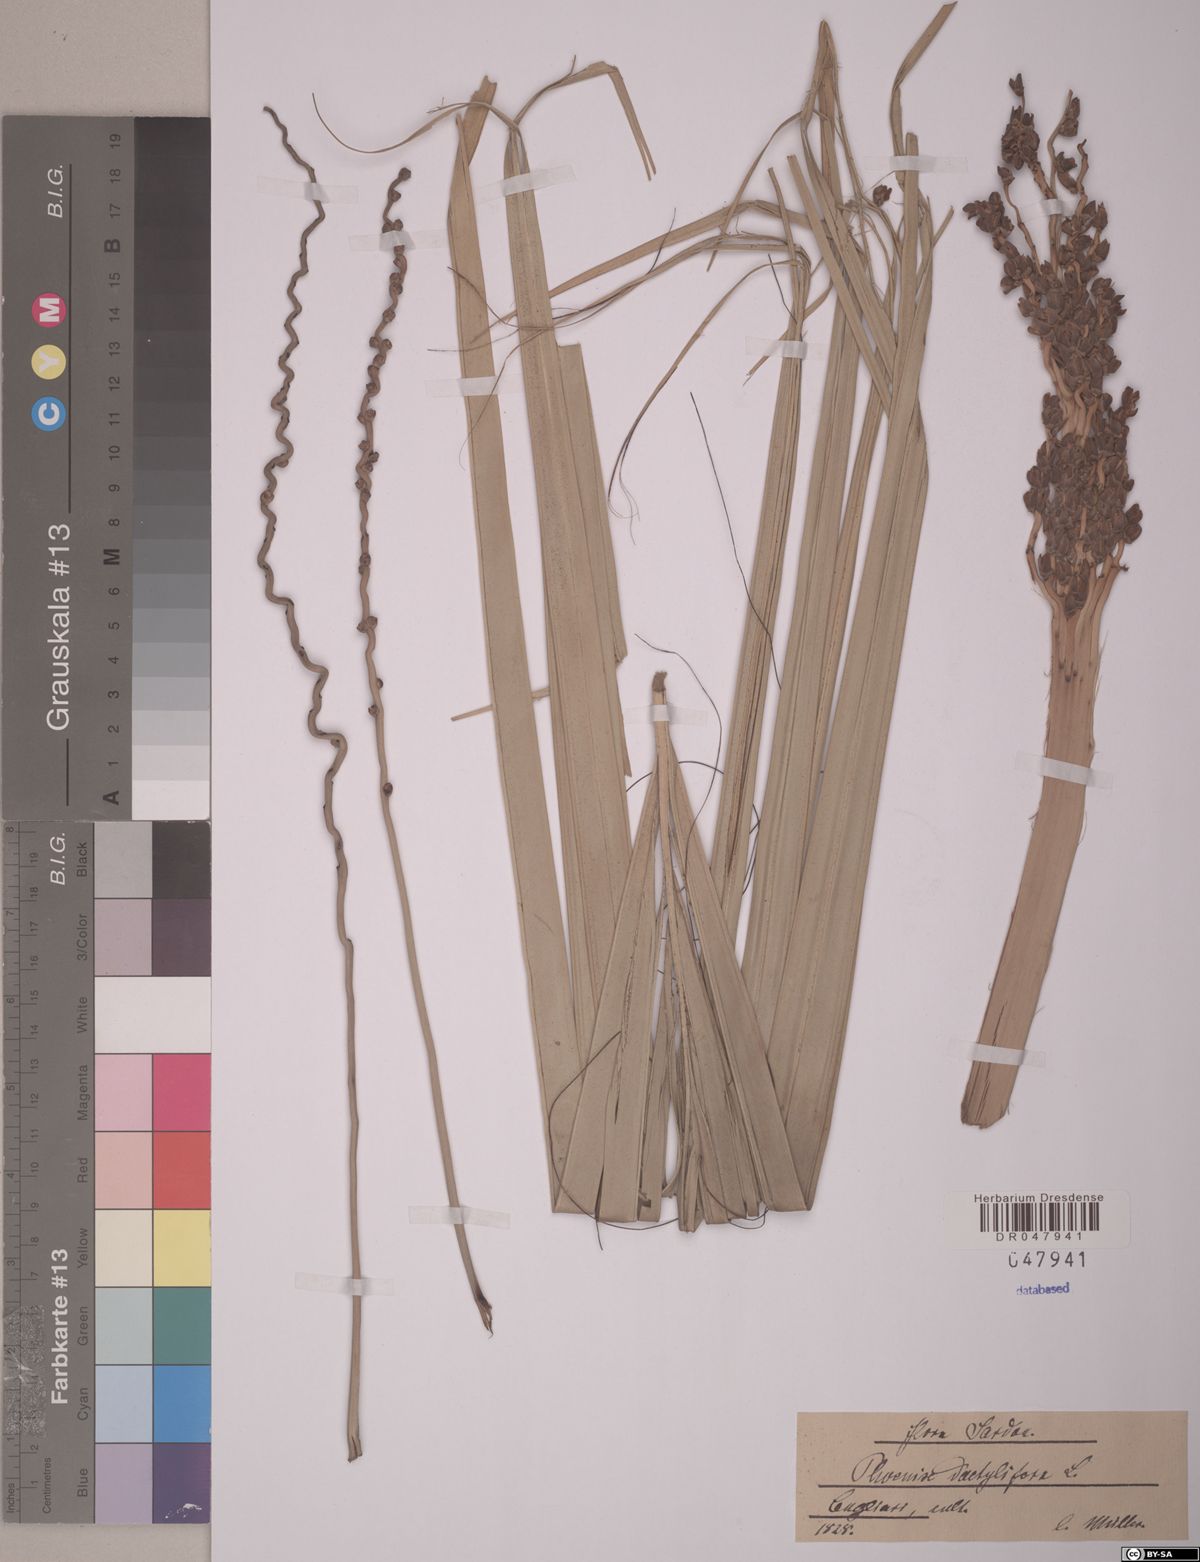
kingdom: Plantae
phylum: Tracheophyta
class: Liliopsida
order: Arecales
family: Arecaceae
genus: Phoenix
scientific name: Phoenix dactylifera
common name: Date palm
